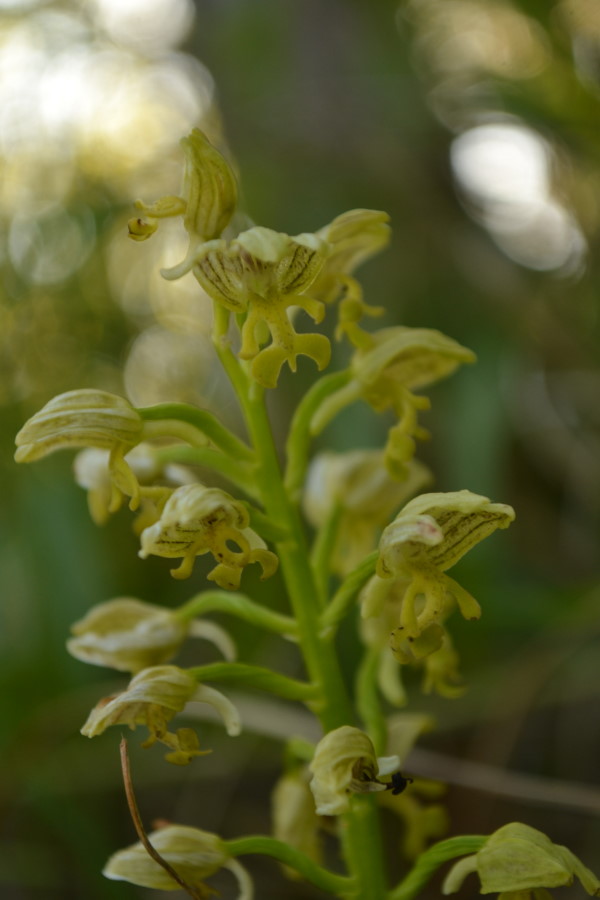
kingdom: Plantae
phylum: Tracheophyta
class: Liliopsida
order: Asparagales
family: Orchidaceae
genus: Orchis
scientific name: Orchis punctulata
